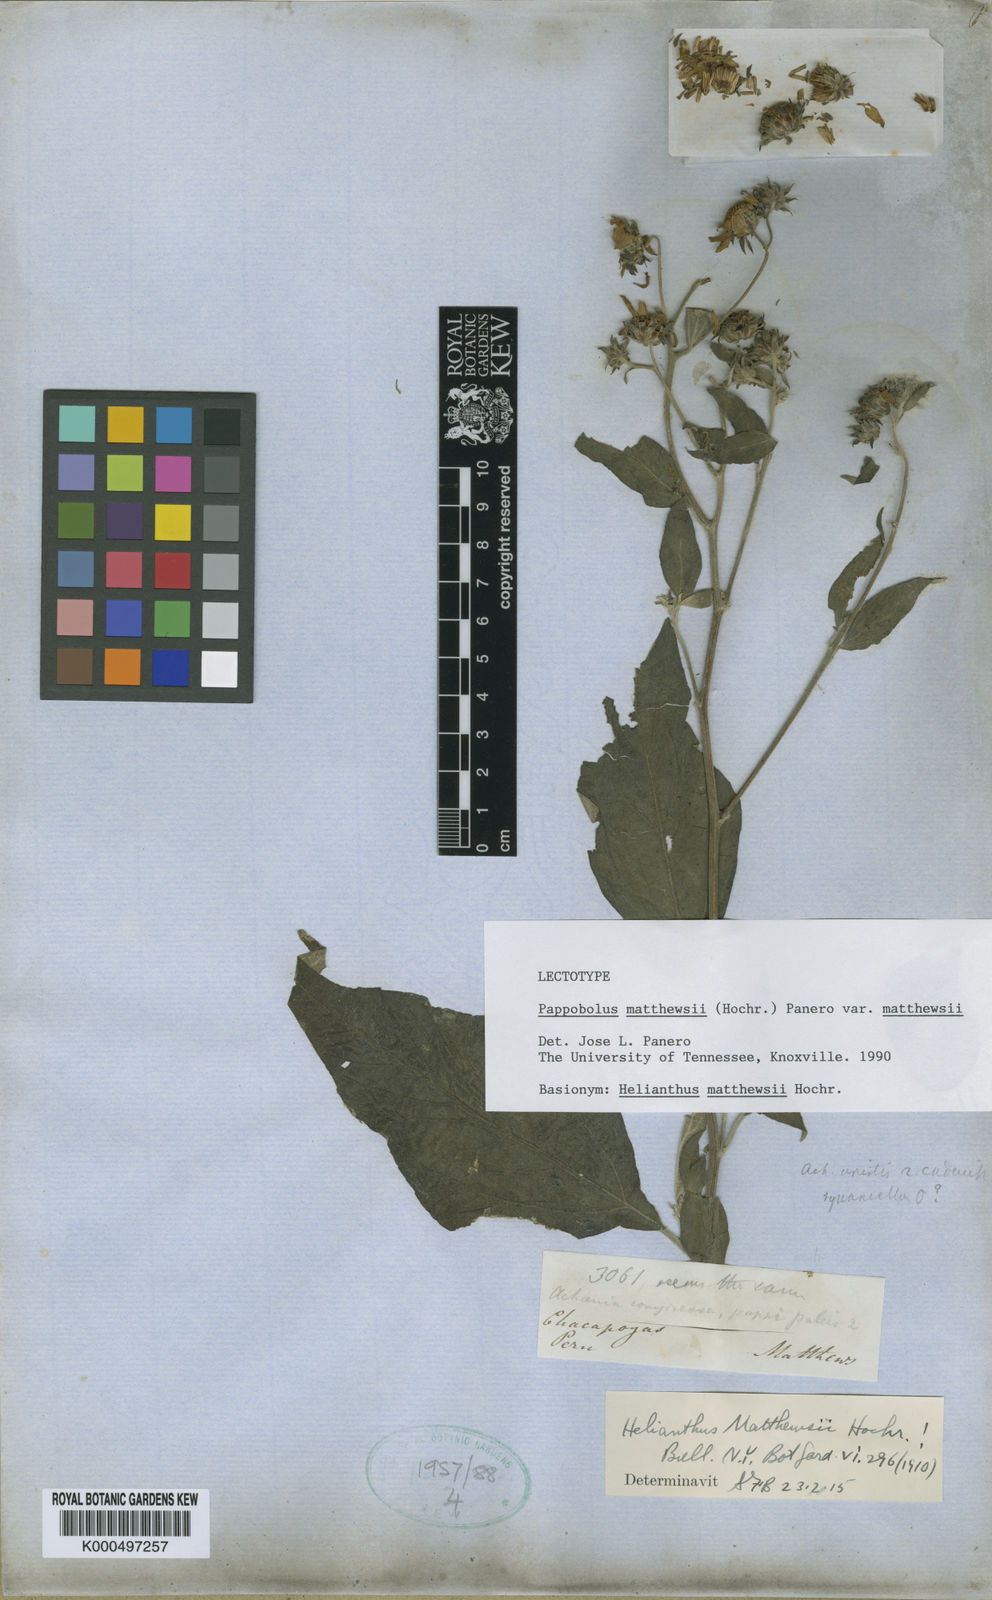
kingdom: Plantae
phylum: Tracheophyta
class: Magnoliopsida
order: Asterales
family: Asteraceae
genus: Pappobolus
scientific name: Pappobolus matthewsii
